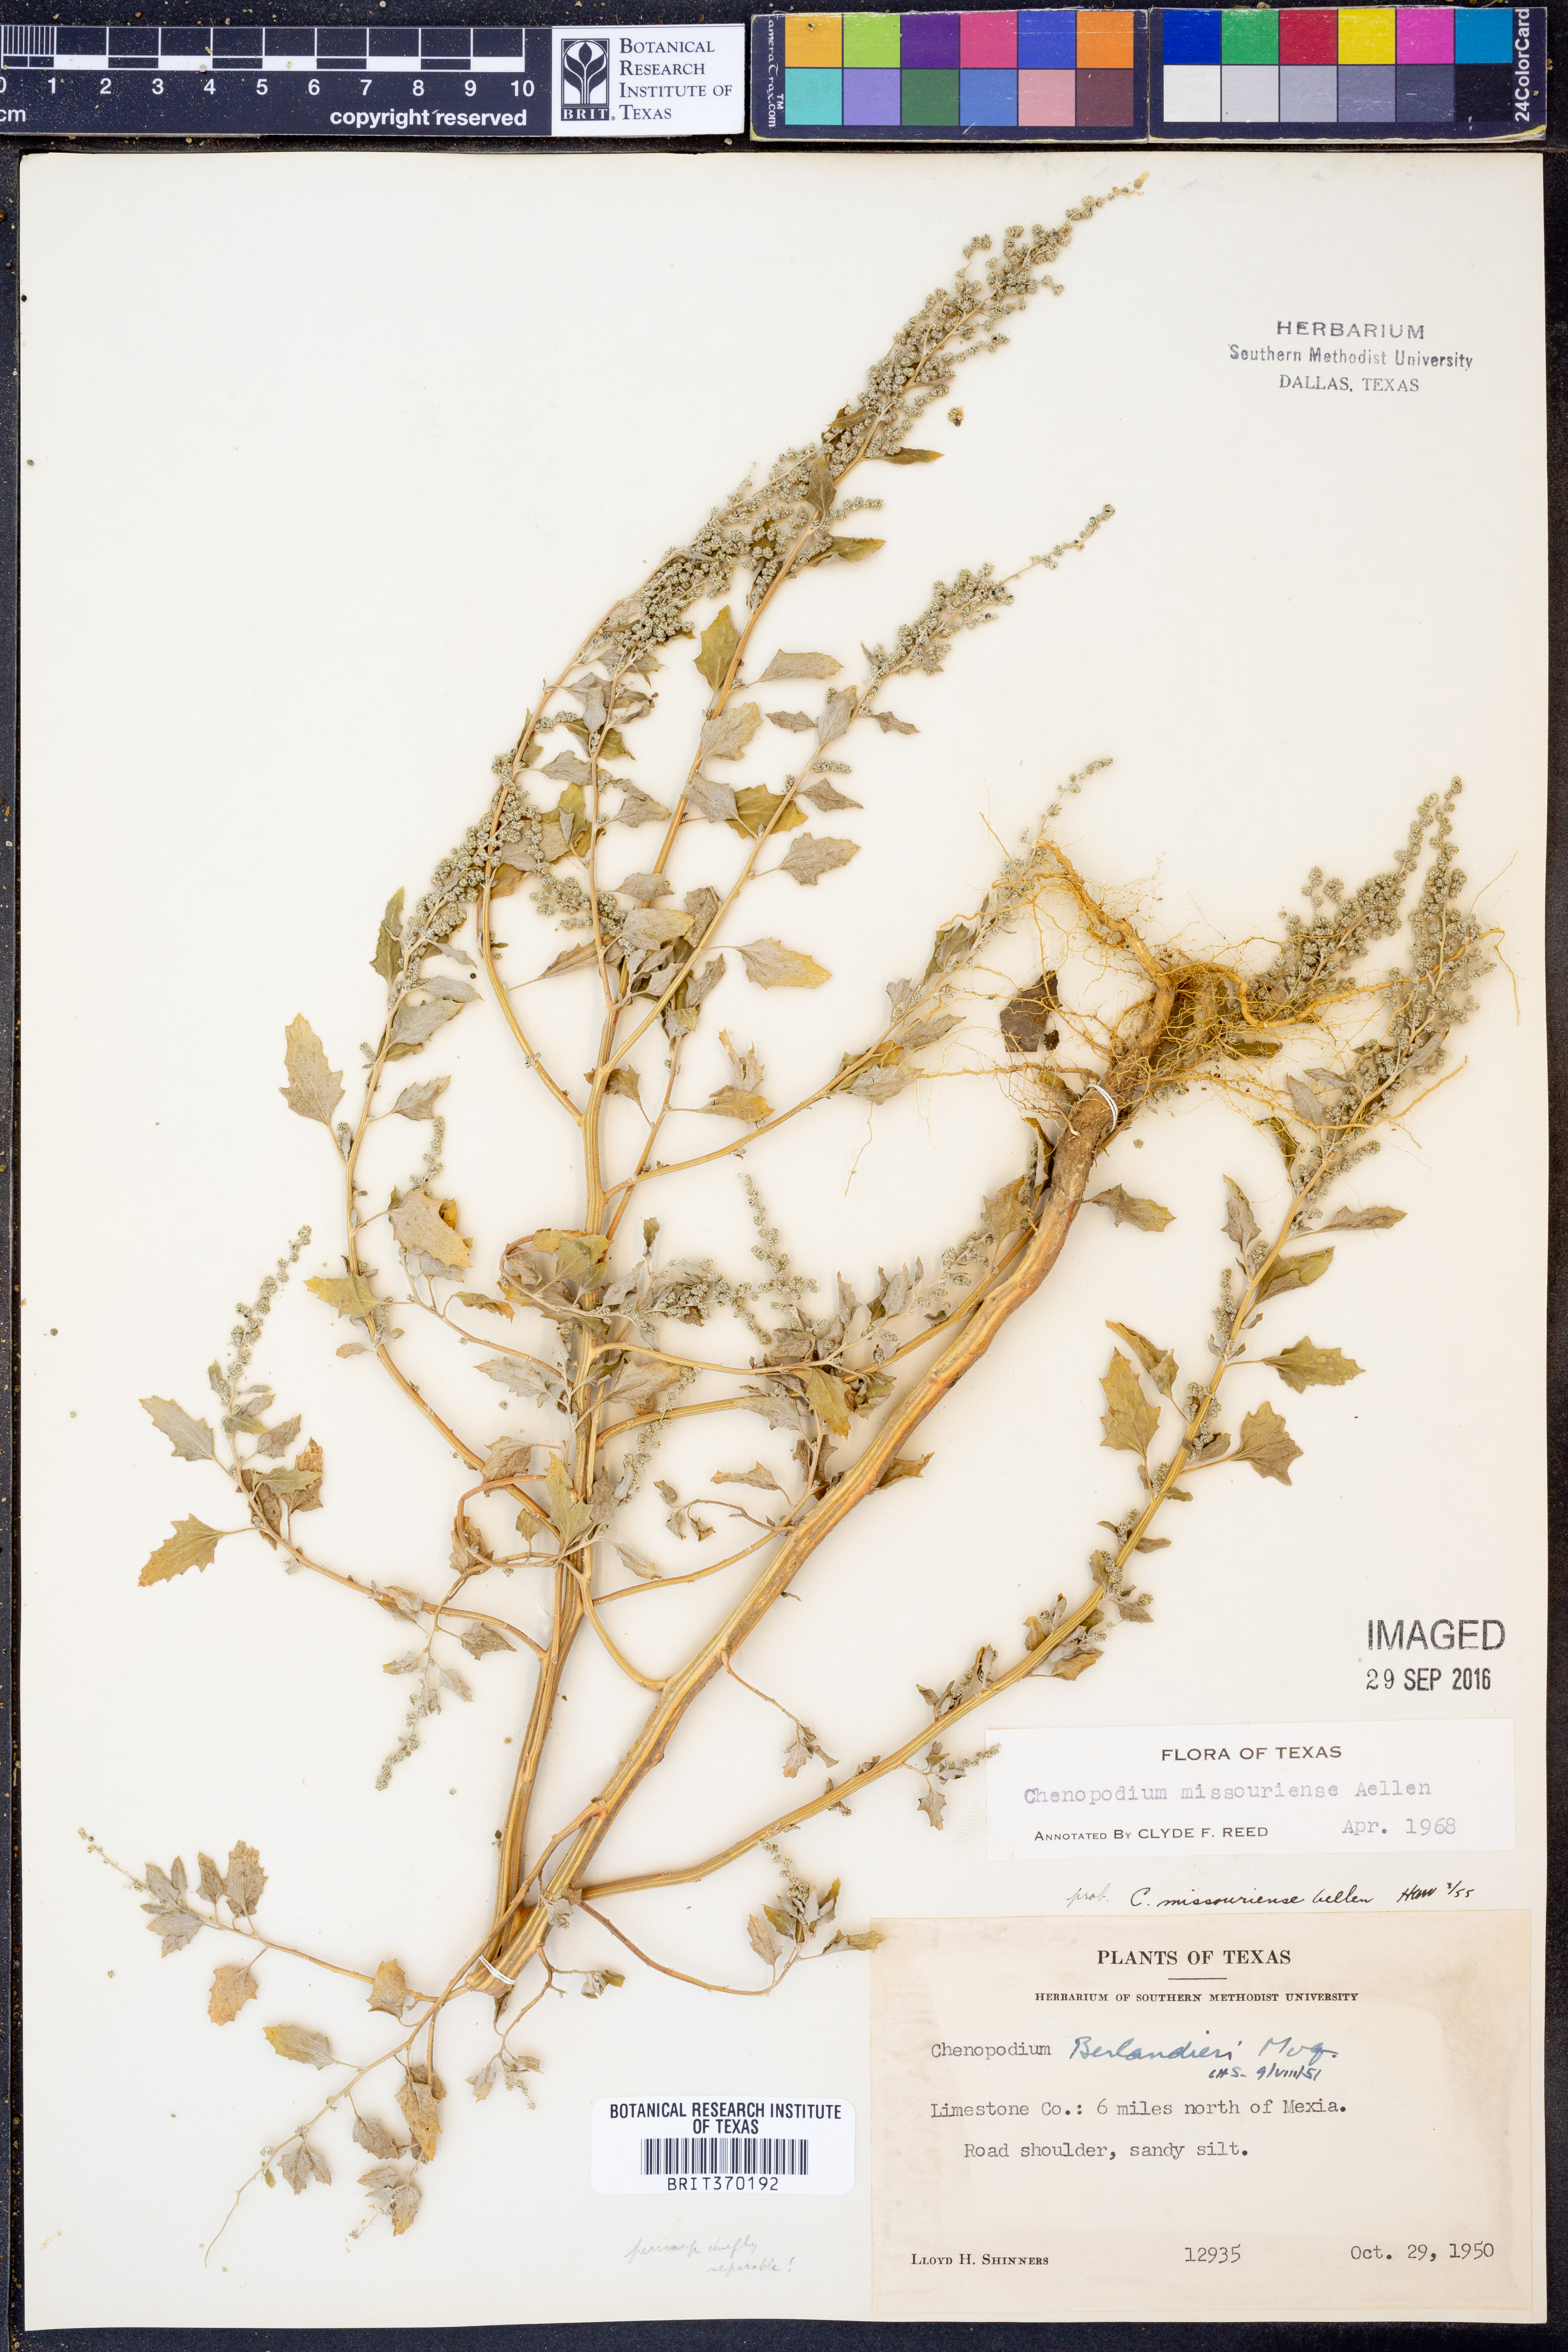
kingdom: Plantae
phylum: Tracheophyta
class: Magnoliopsida
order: Caryophyllales
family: Amaranthaceae
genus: Chenopodium
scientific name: Chenopodium album
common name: Fat-hen
